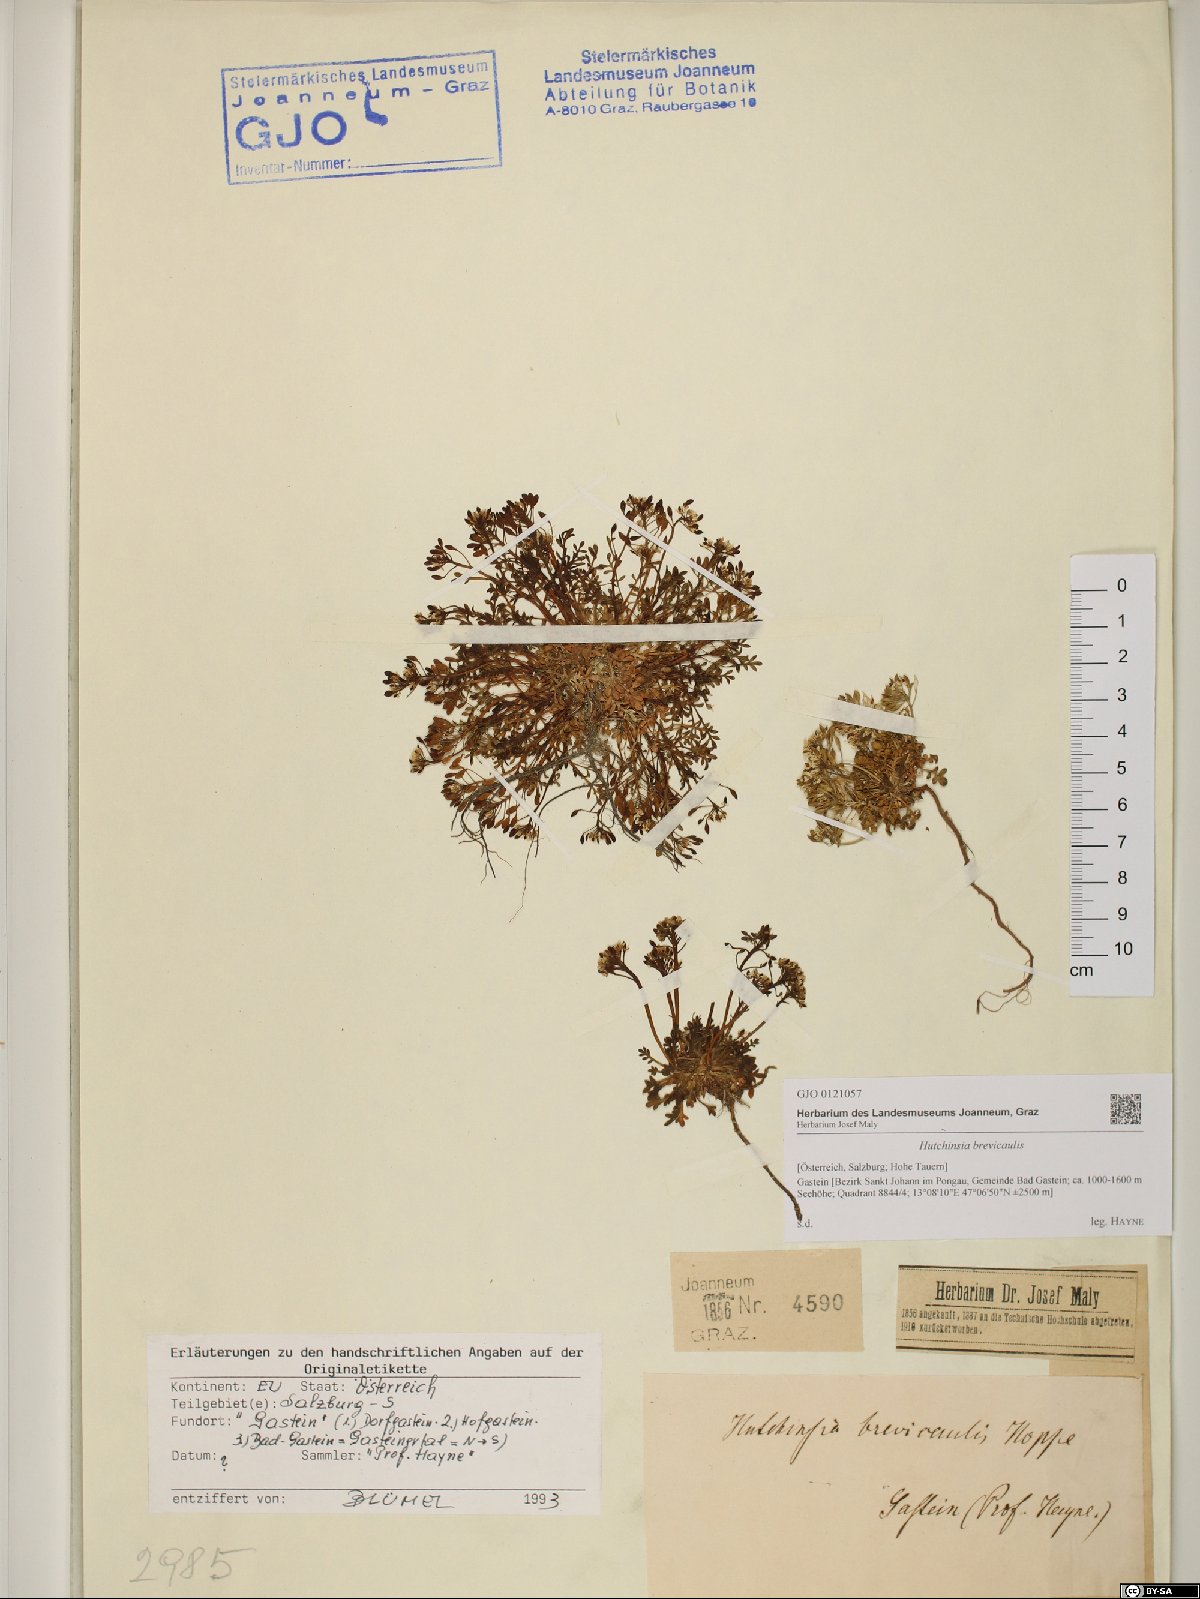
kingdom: Plantae
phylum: Tracheophyta
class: Magnoliopsida
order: Brassicales
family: Brassicaceae
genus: Hornungia
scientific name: Hornungia alpina
